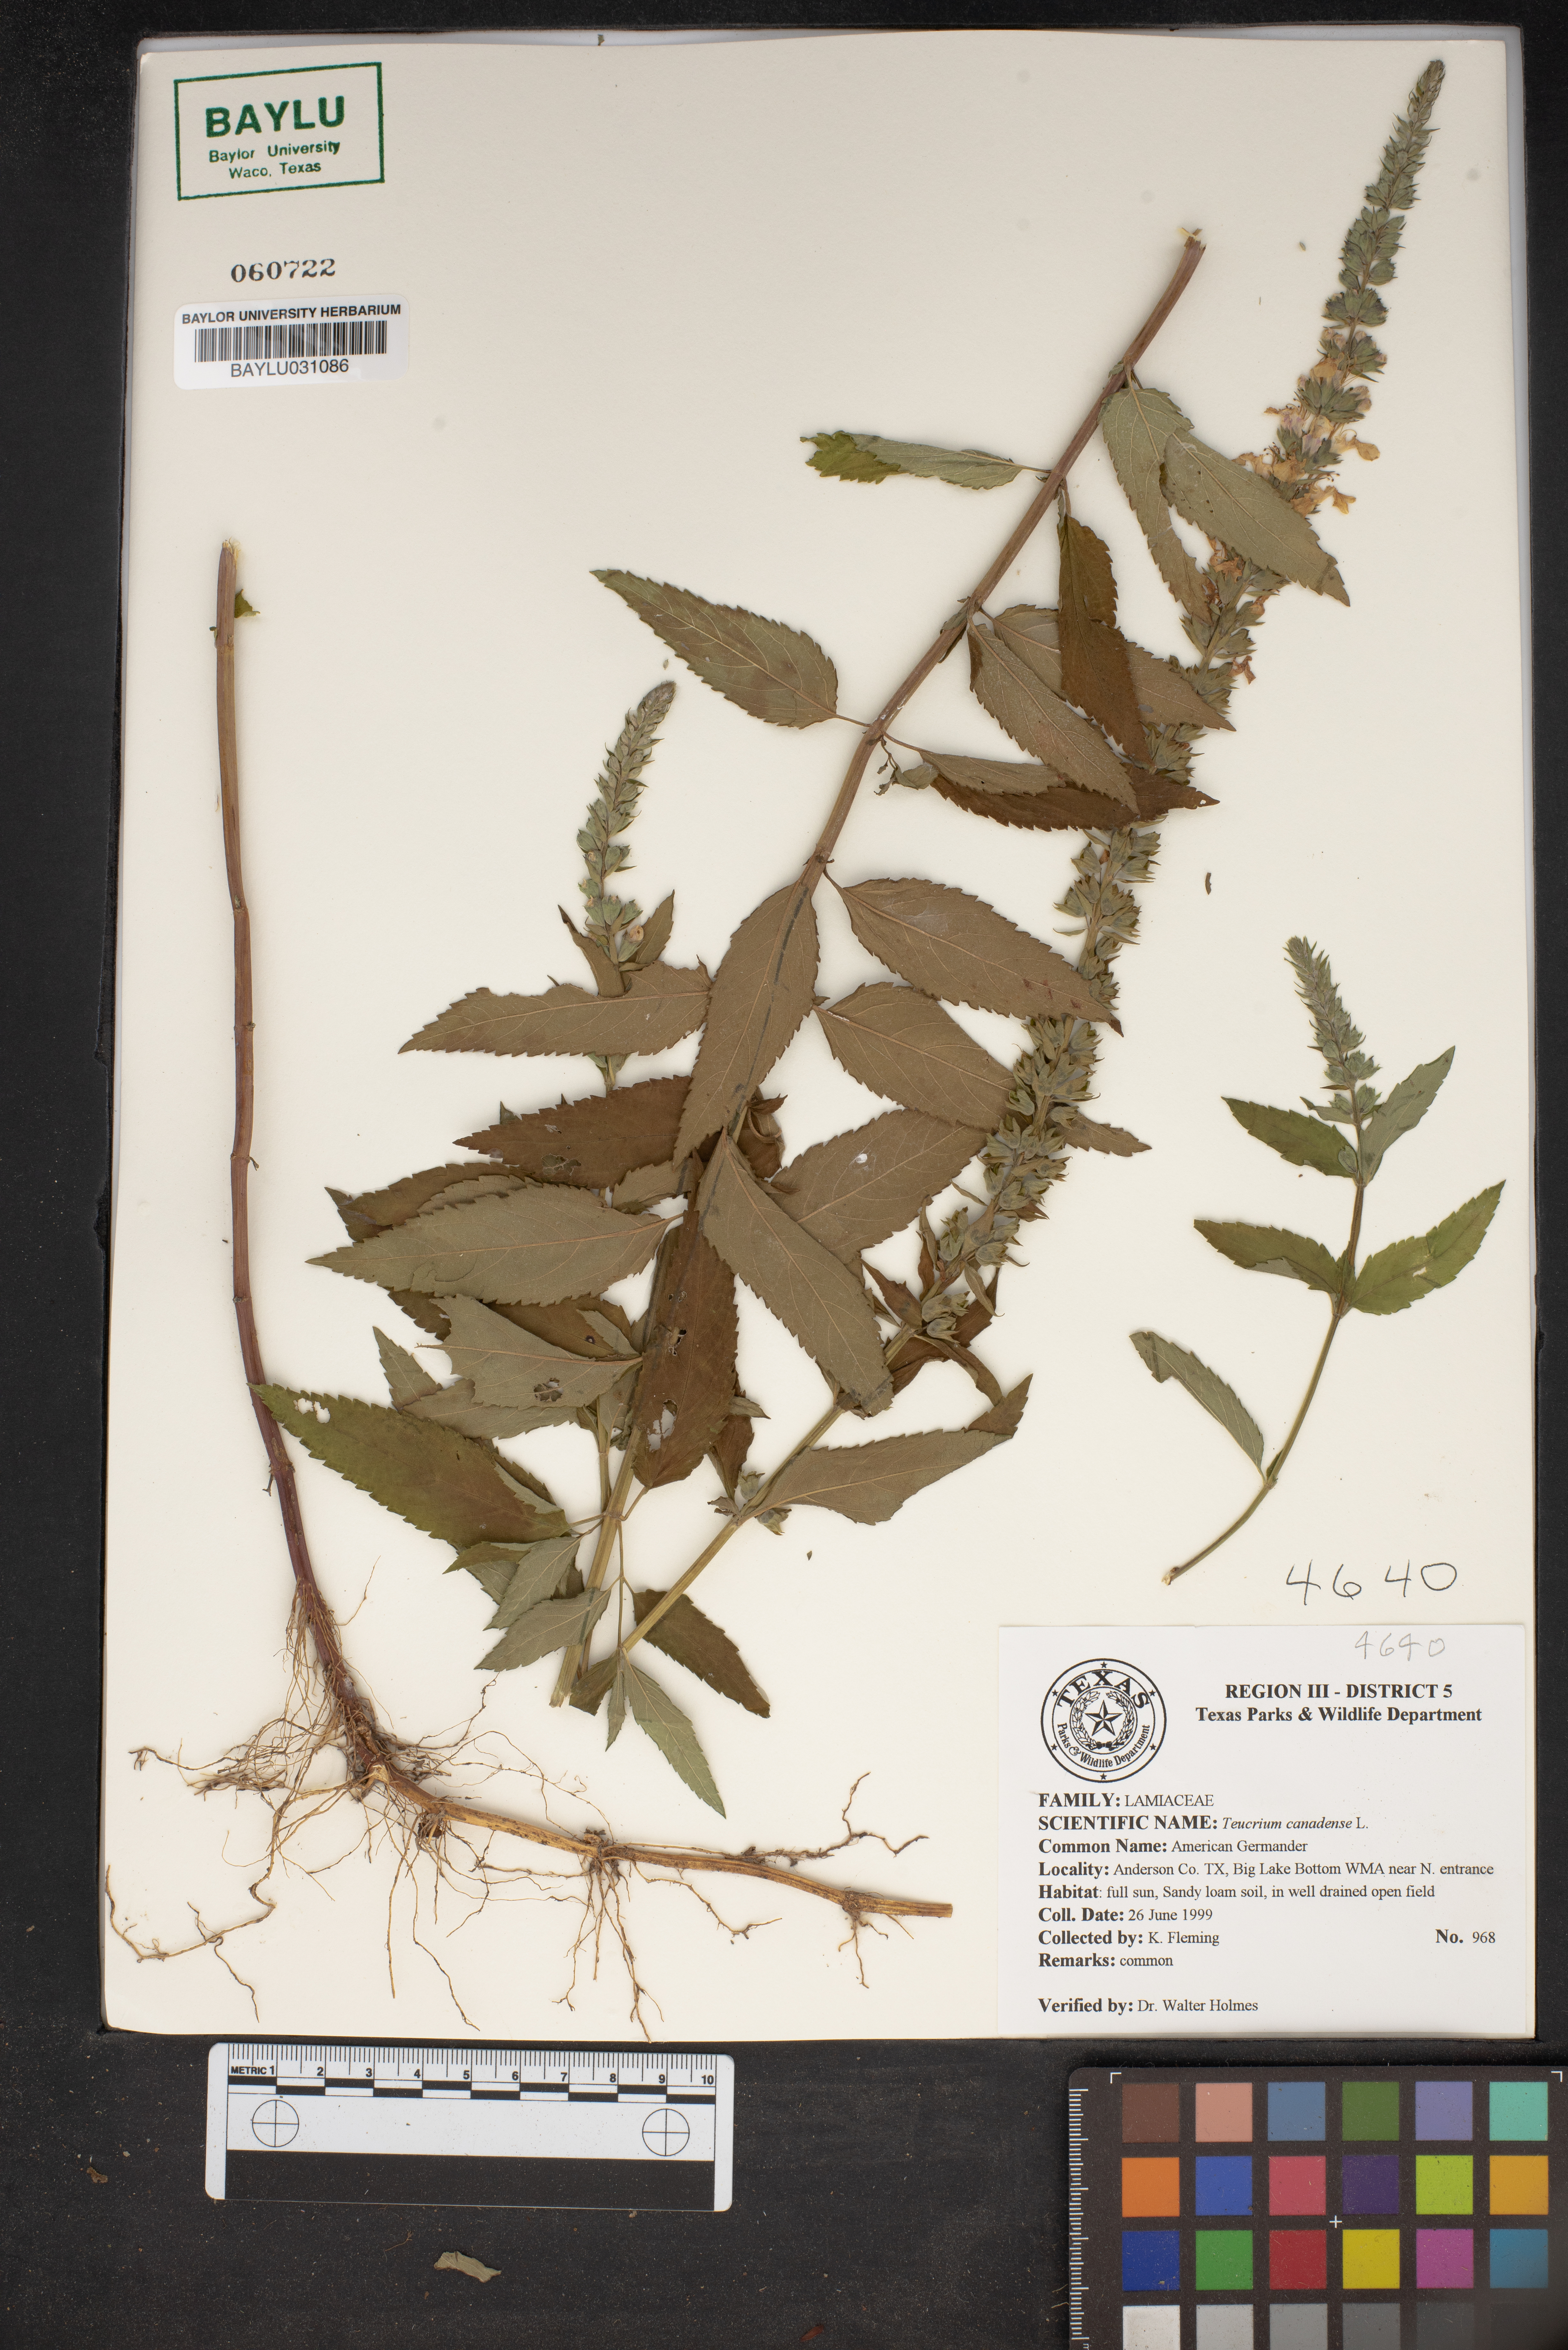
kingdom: Plantae
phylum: Tracheophyta
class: Magnoliopsida
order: Lamiales
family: Lamiaceae
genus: Teucrium
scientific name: Teucrium canadense
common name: American germander
